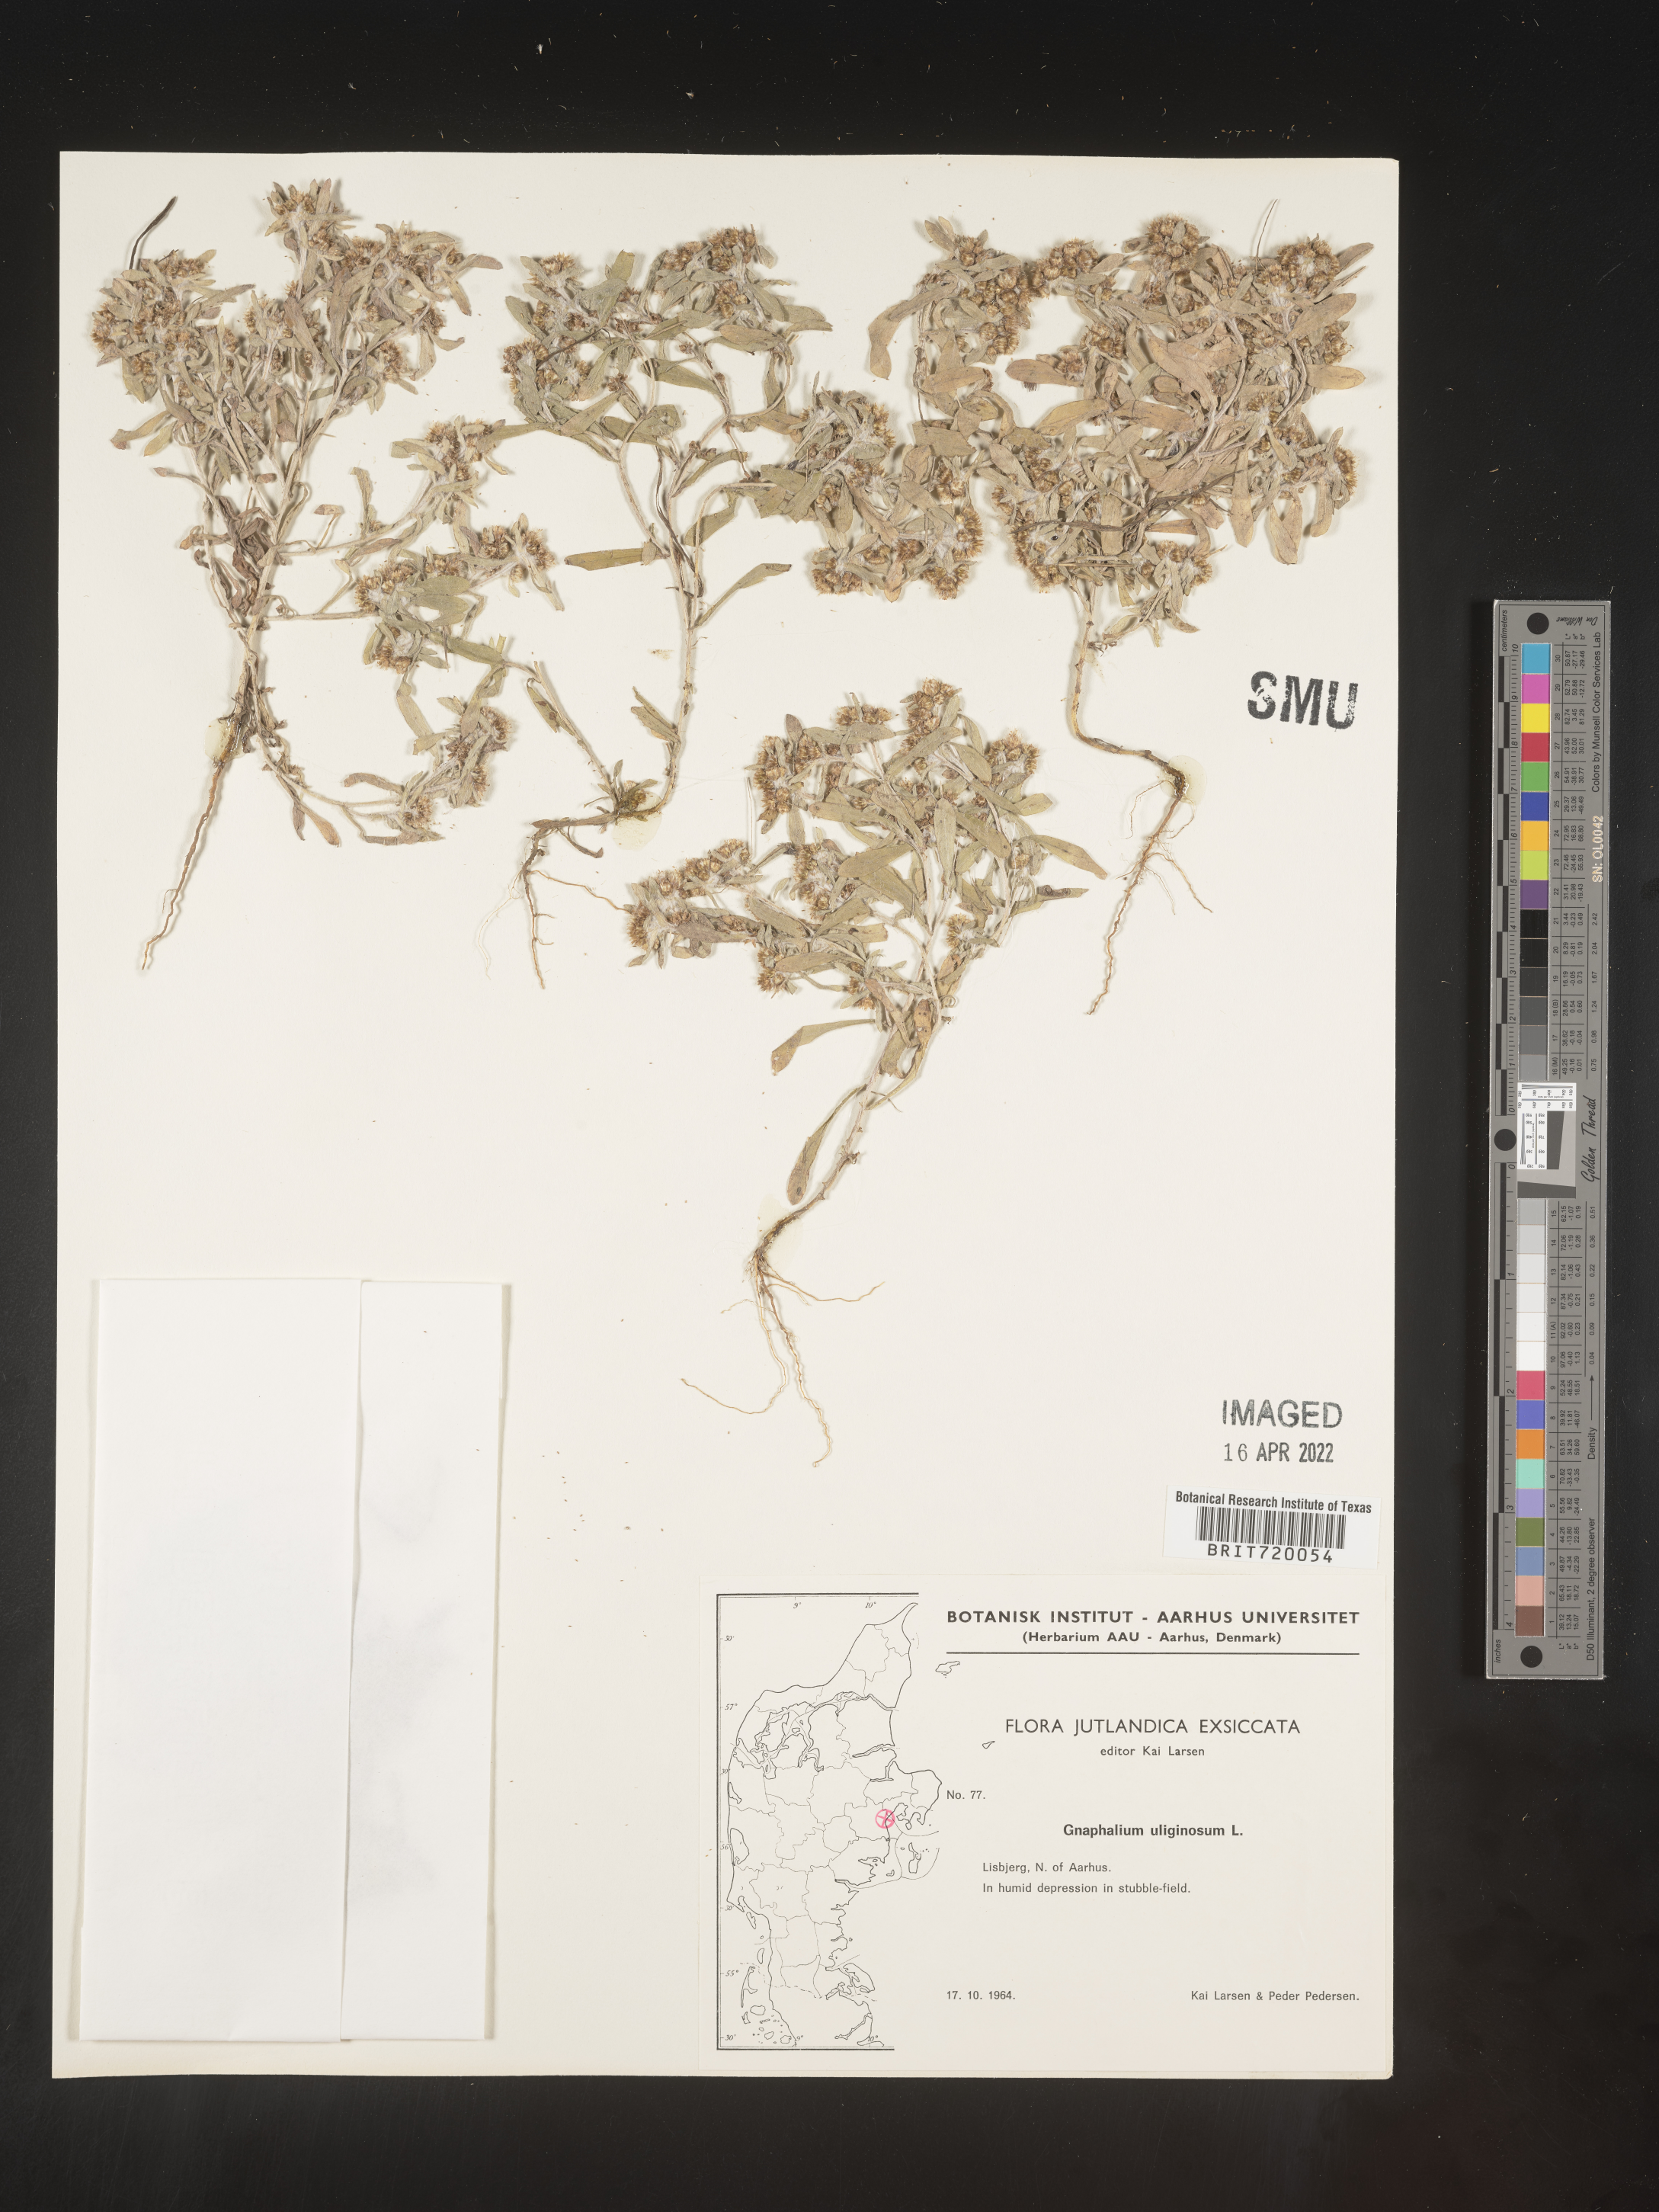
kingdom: Plantae
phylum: Tracheophyta
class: Magnoliopsida
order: Asterales
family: Asteraceae
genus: Gnaphalium
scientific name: Gnaphalium
